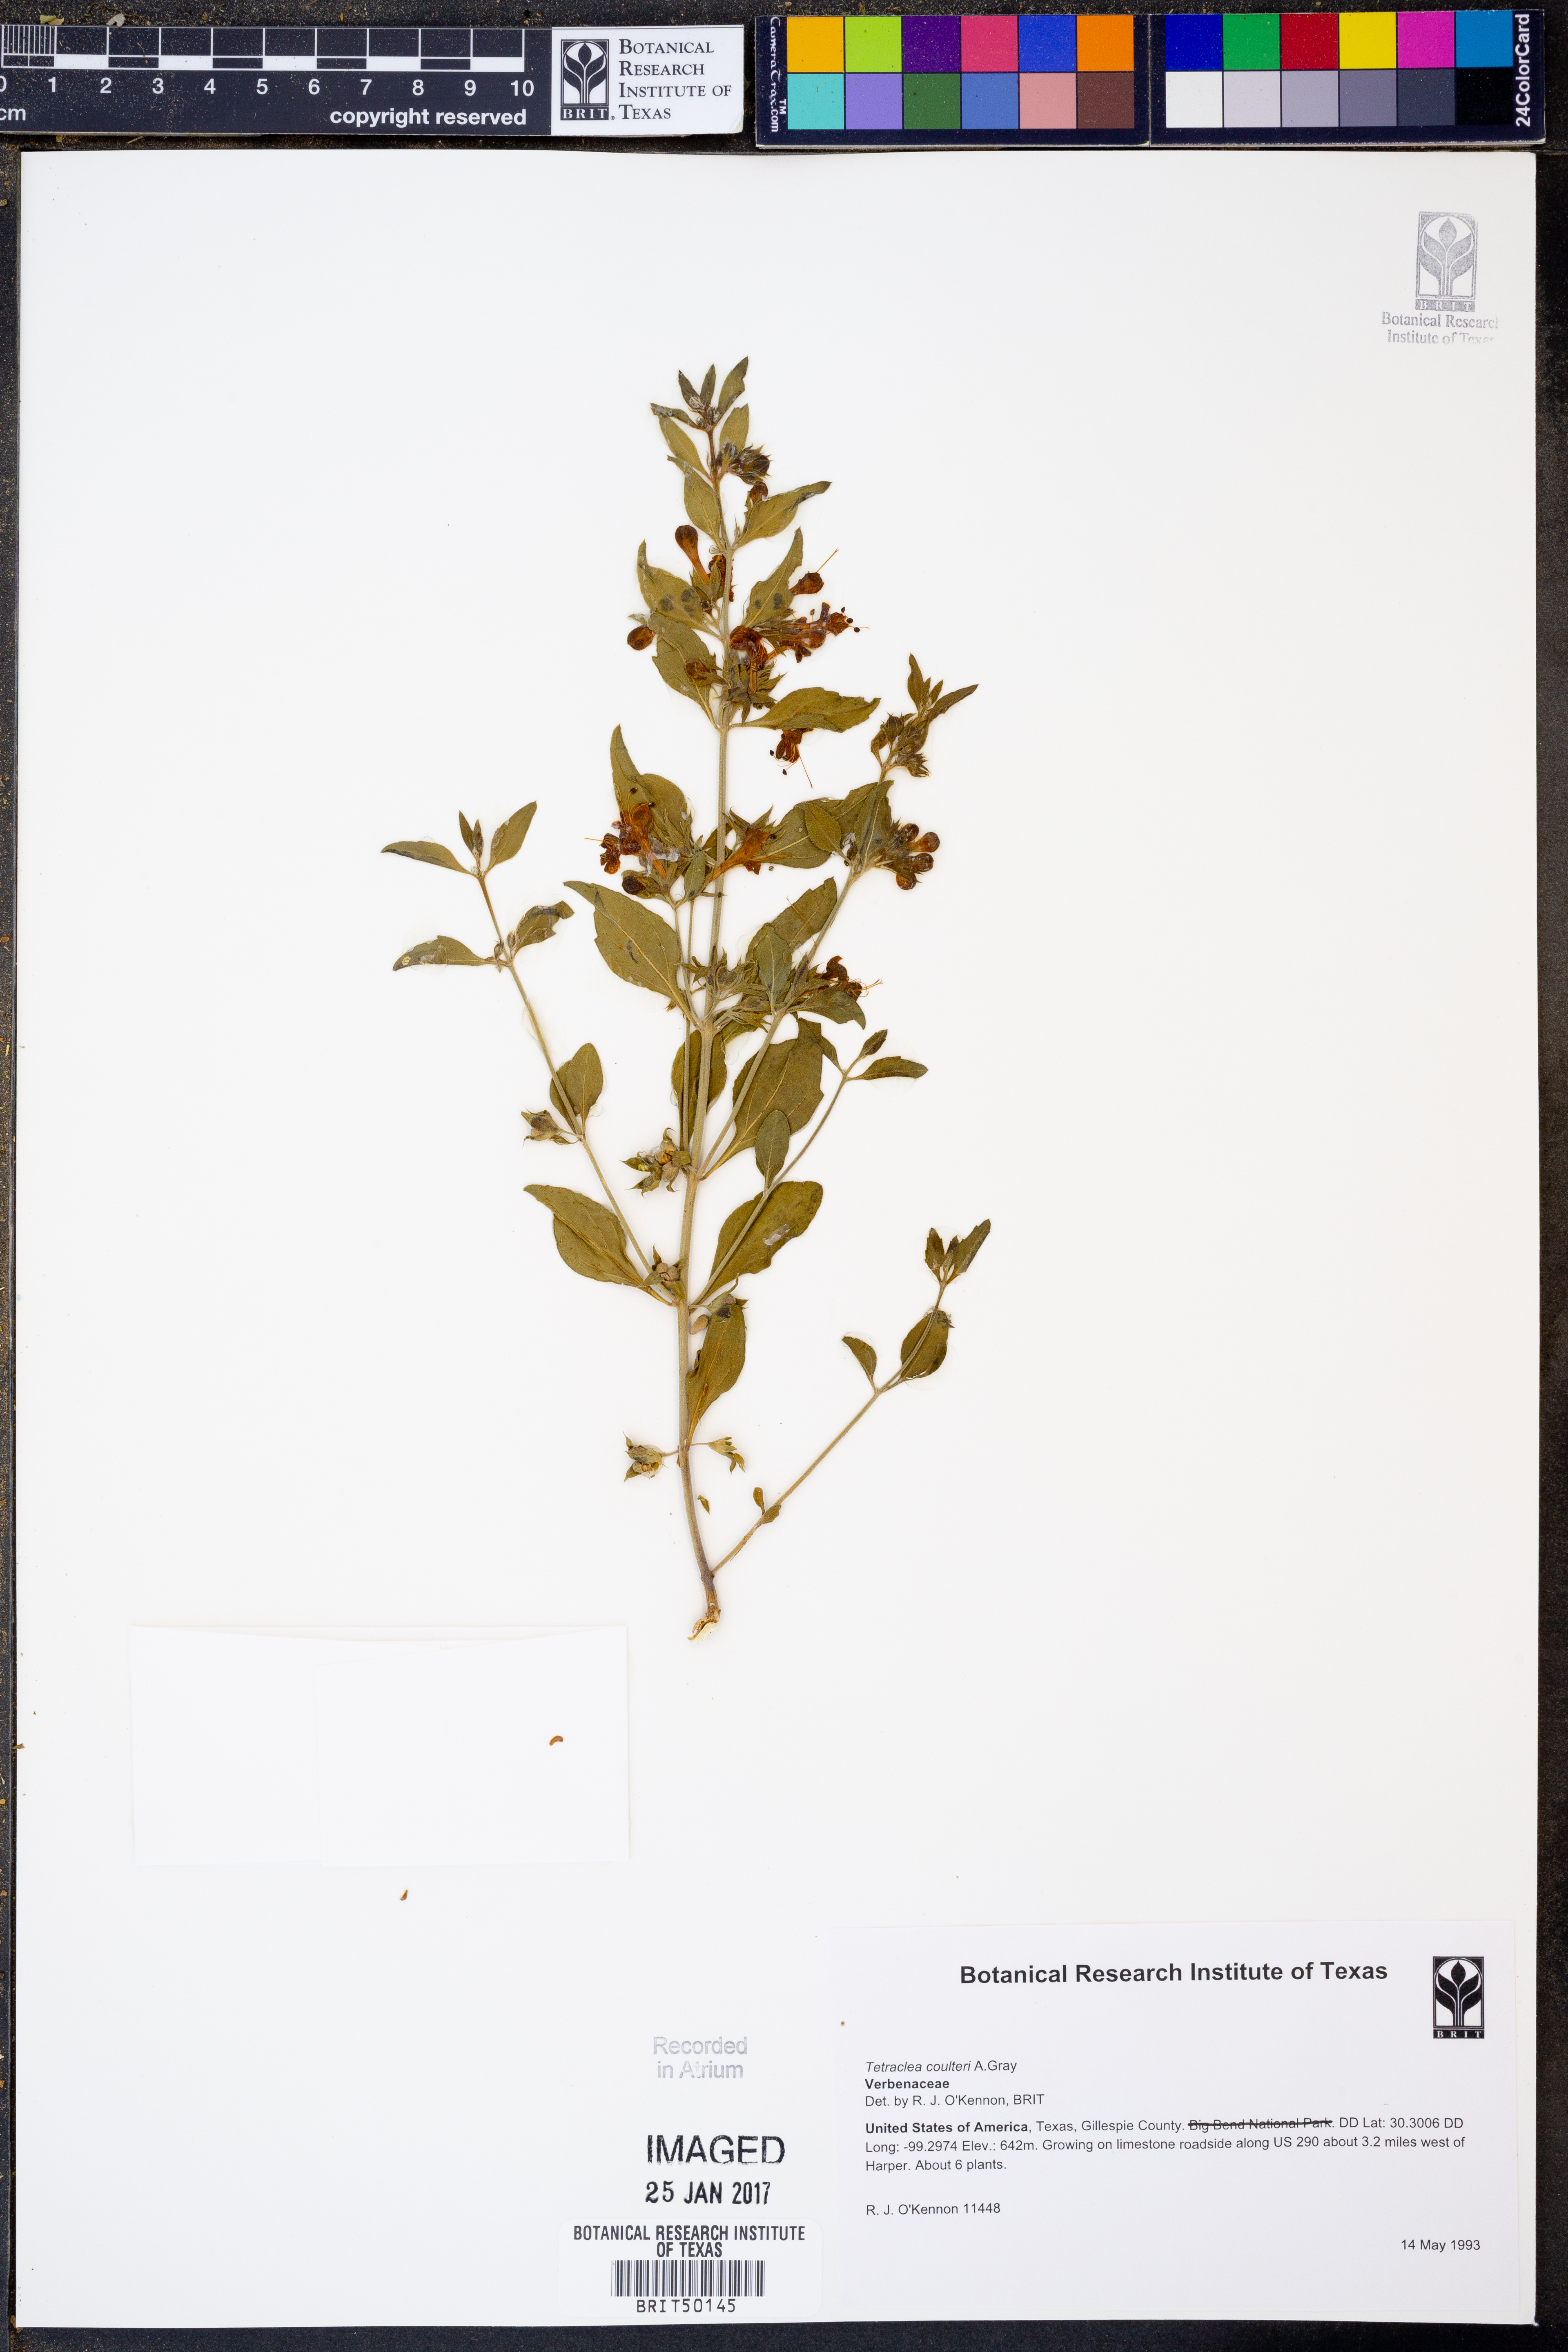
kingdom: Plantae
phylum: Tracheophyta
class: Magnoliopsida
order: Lamiales
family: Lamiaceae
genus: Tetraclea
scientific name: Tetraclea coulteri
